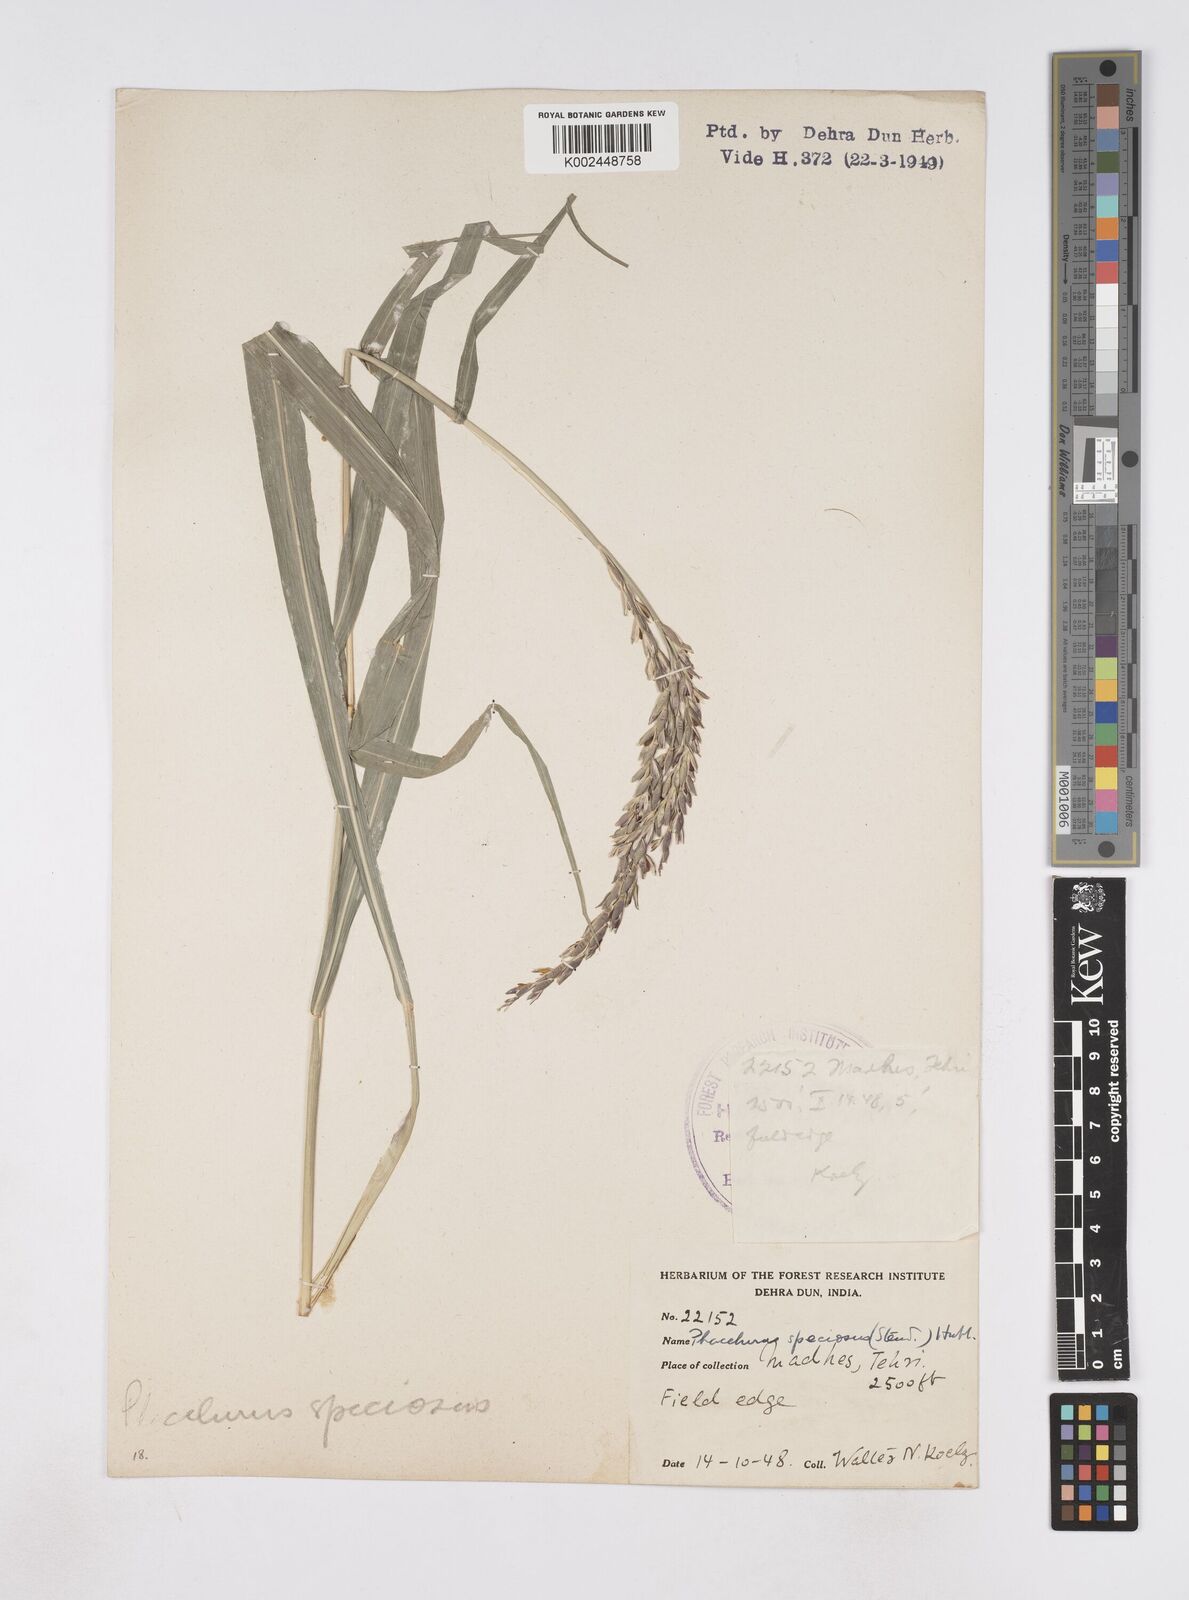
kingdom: Plantae
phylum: Tracheophyta
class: Liliopsida
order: Poales
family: Poaceae
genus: Phacelurus
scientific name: Phacelurus speciosus
